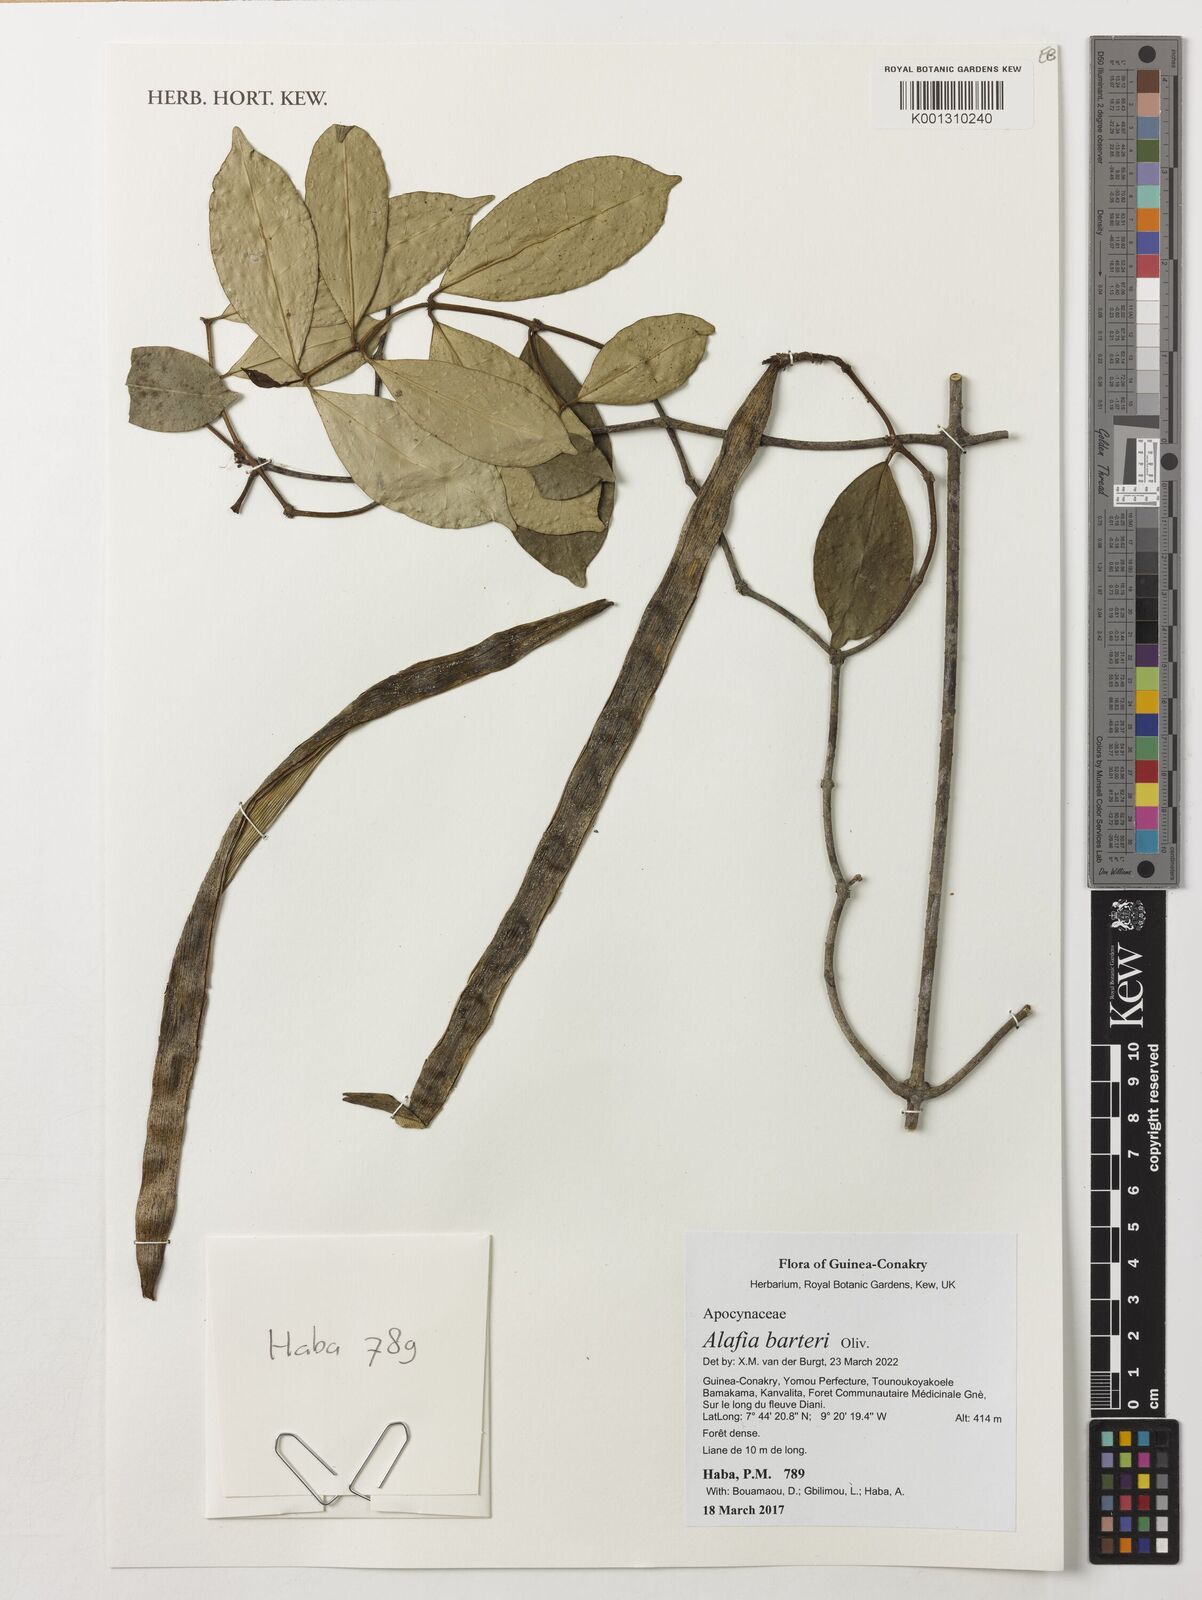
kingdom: Plantae
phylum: Tracheophyta
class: Magnoliopsida
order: Gentianales
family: Apocynaceae
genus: Alafia
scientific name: Alafia barteri
